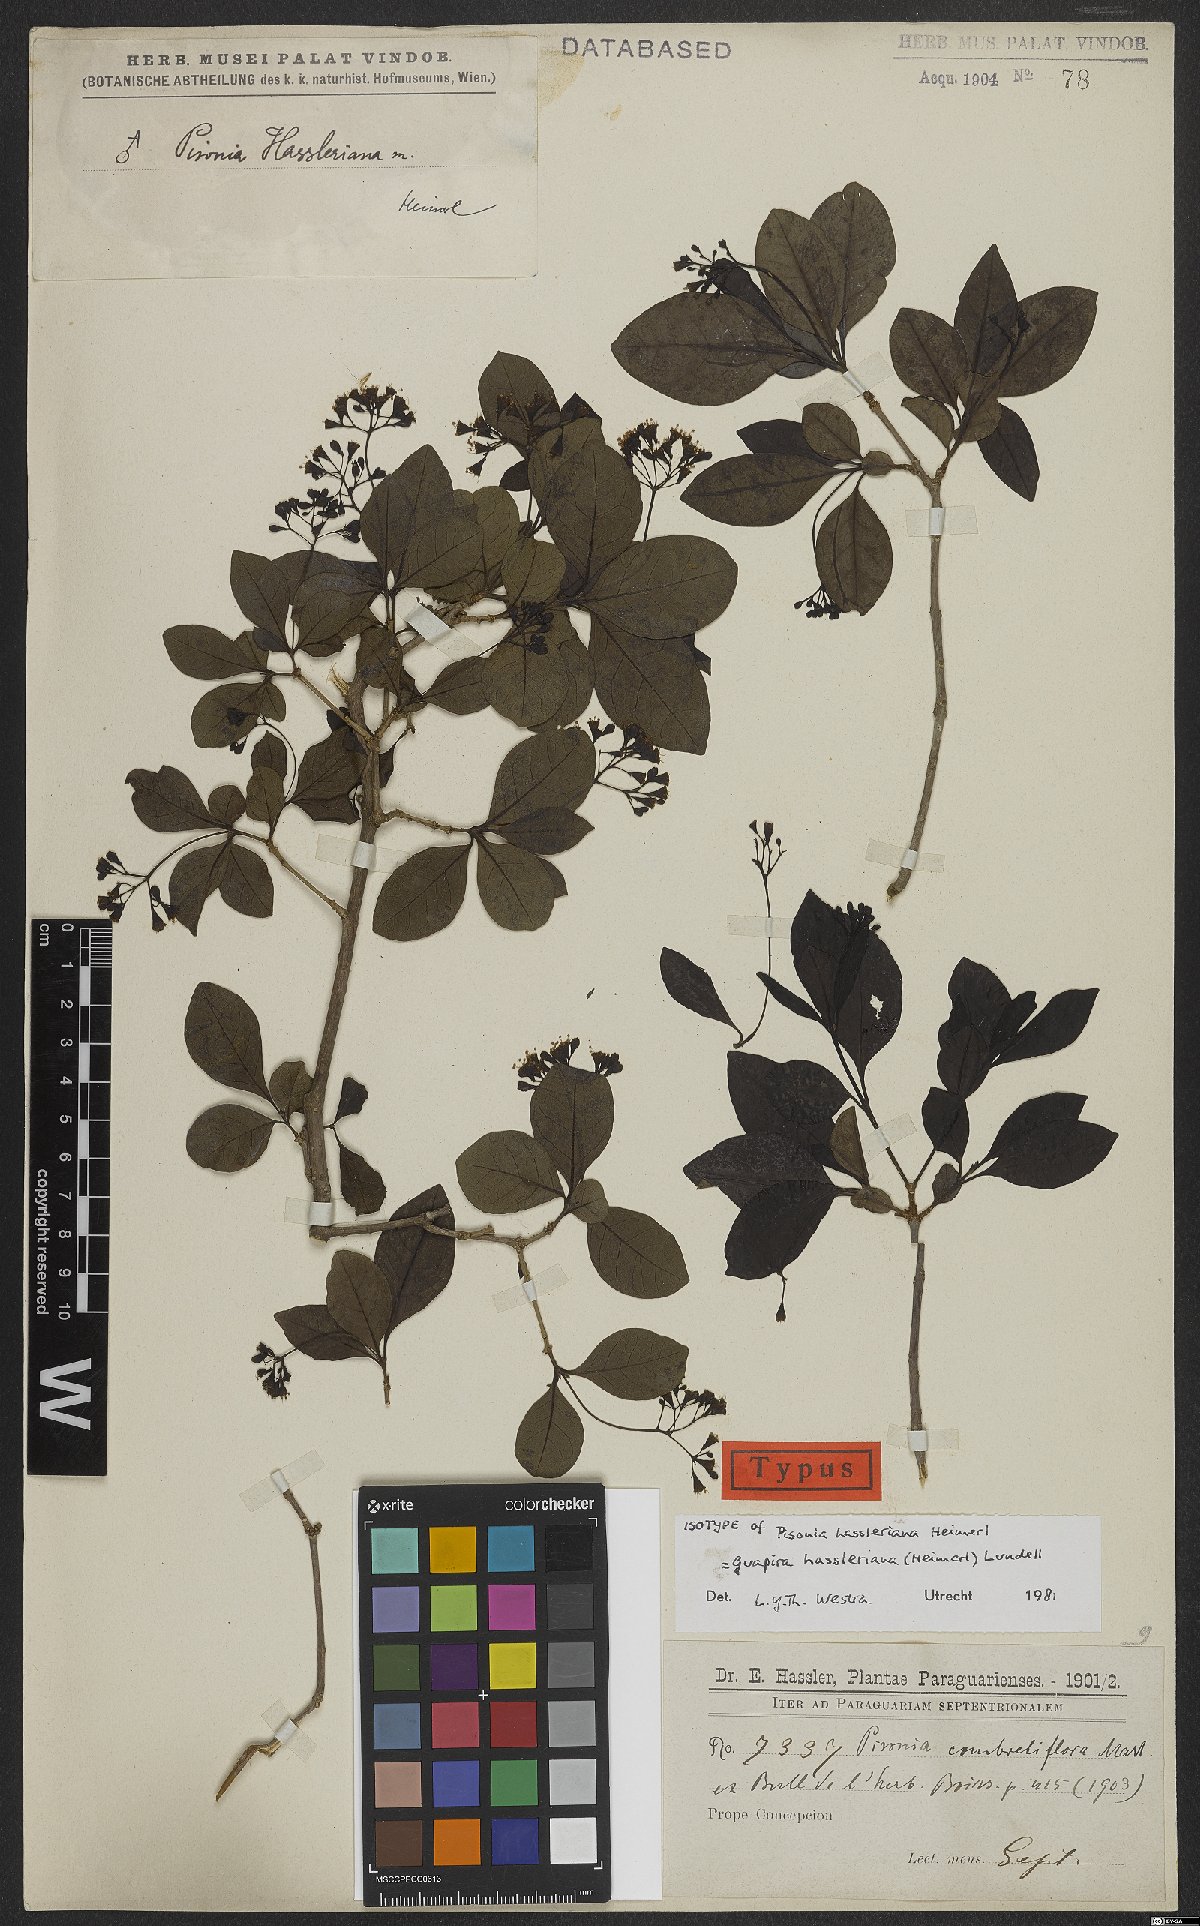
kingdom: Plantae
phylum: Tracheophyta
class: Magnoliopsida
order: Caryophyllales
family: Nyctaginaceae
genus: Guapira
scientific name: Guapira hasslerana
